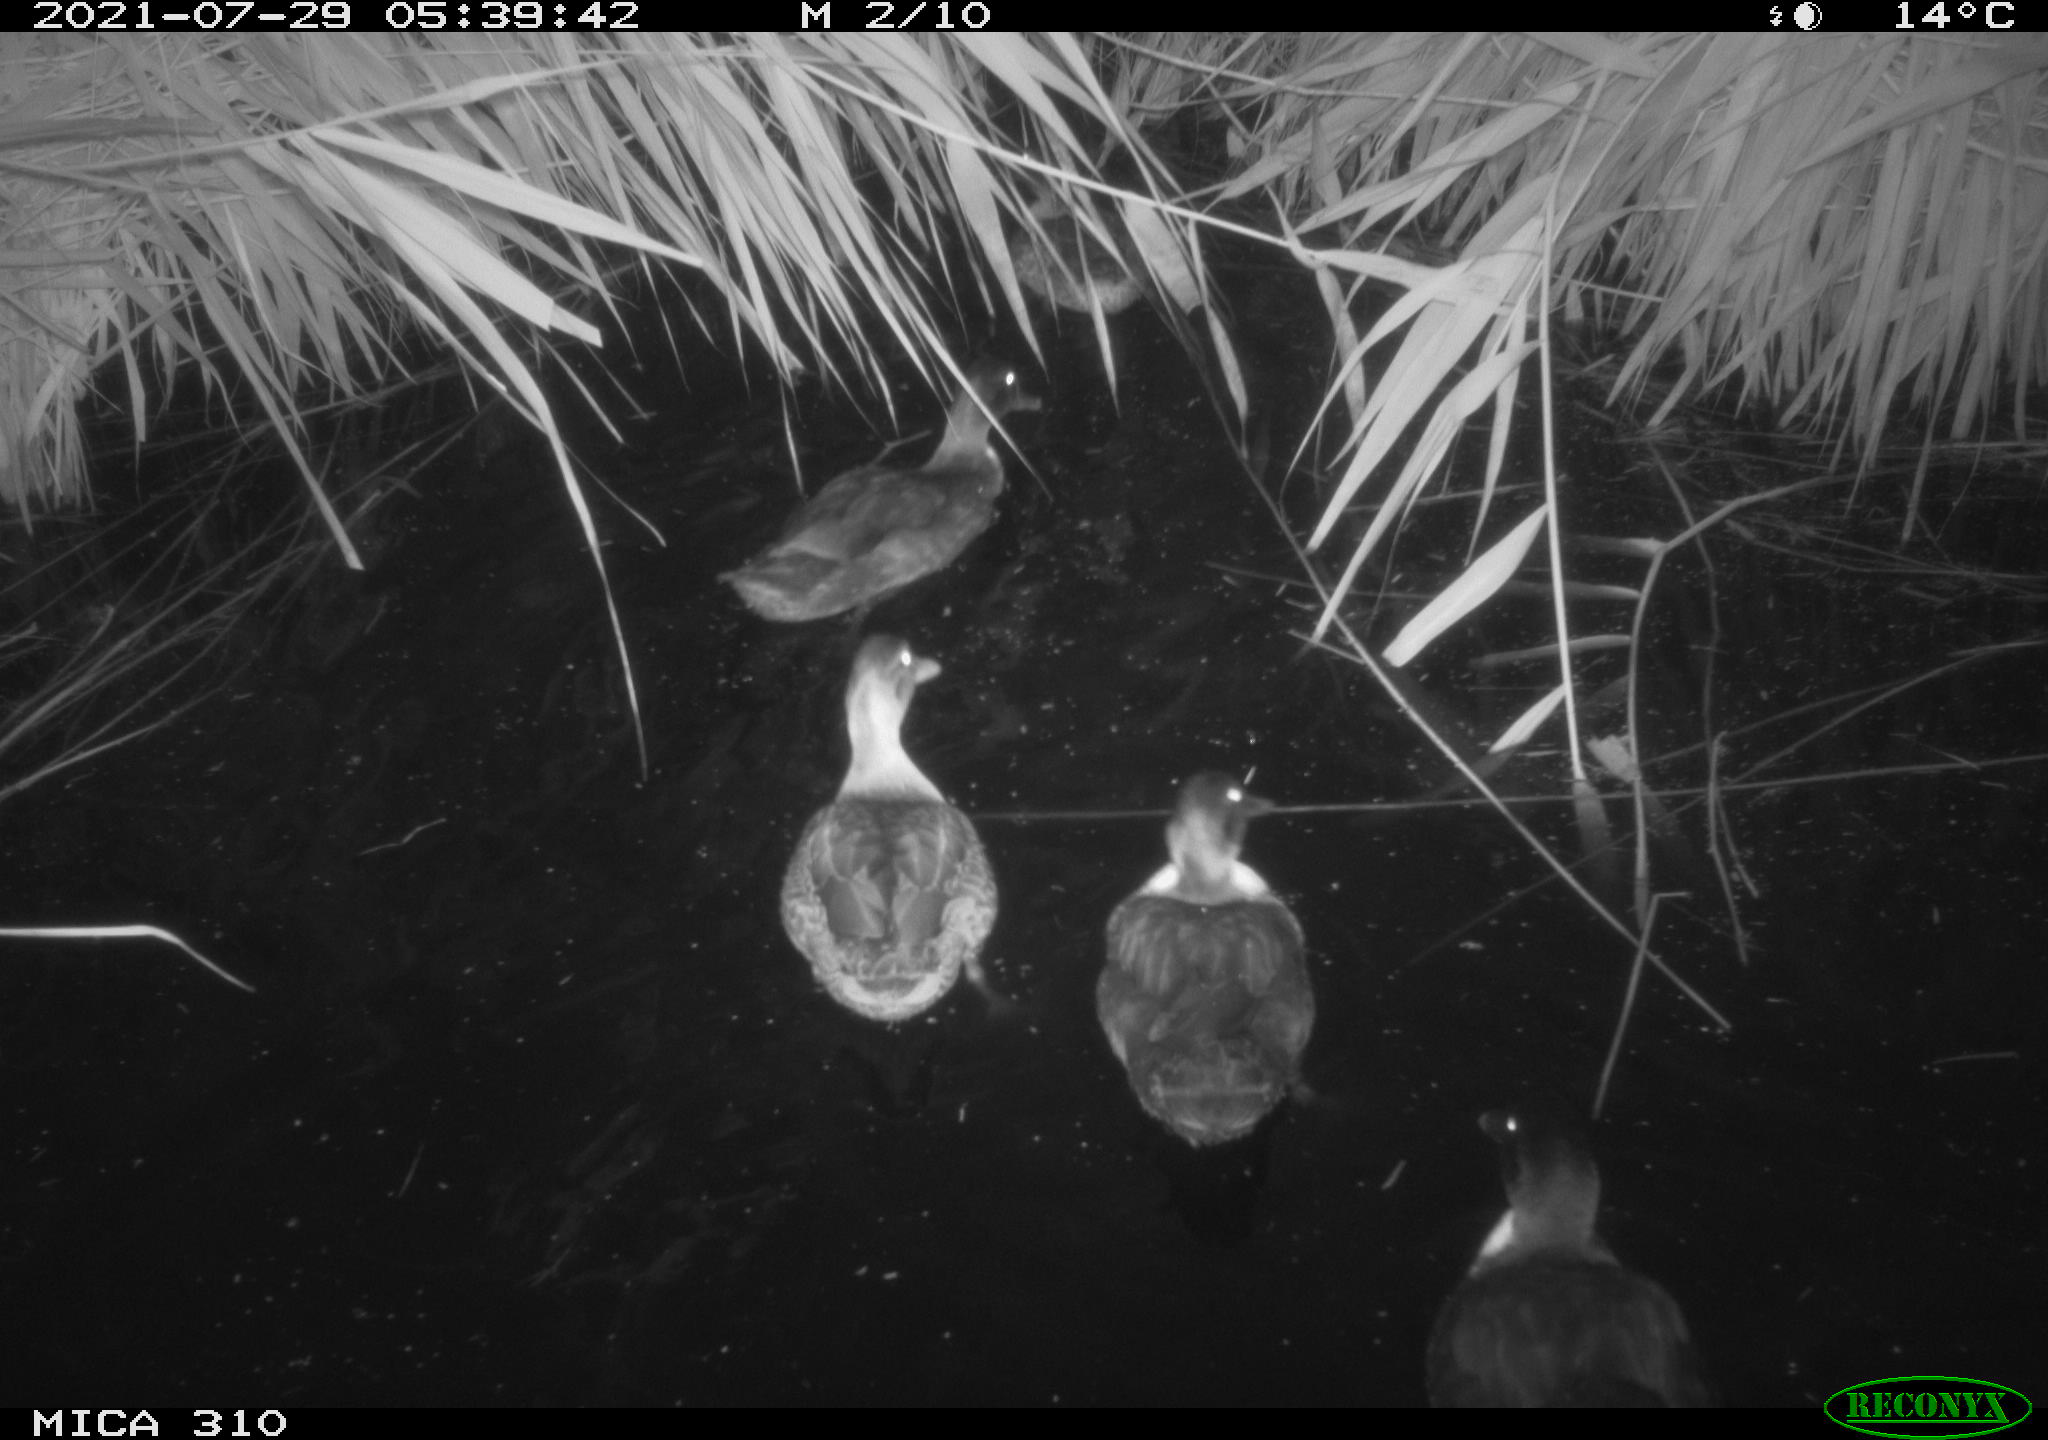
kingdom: Animalia
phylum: Chordata
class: Aves
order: Gruiformes
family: Rallidae
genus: Fulica
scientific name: Fulica atra
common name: Eurasian coot
